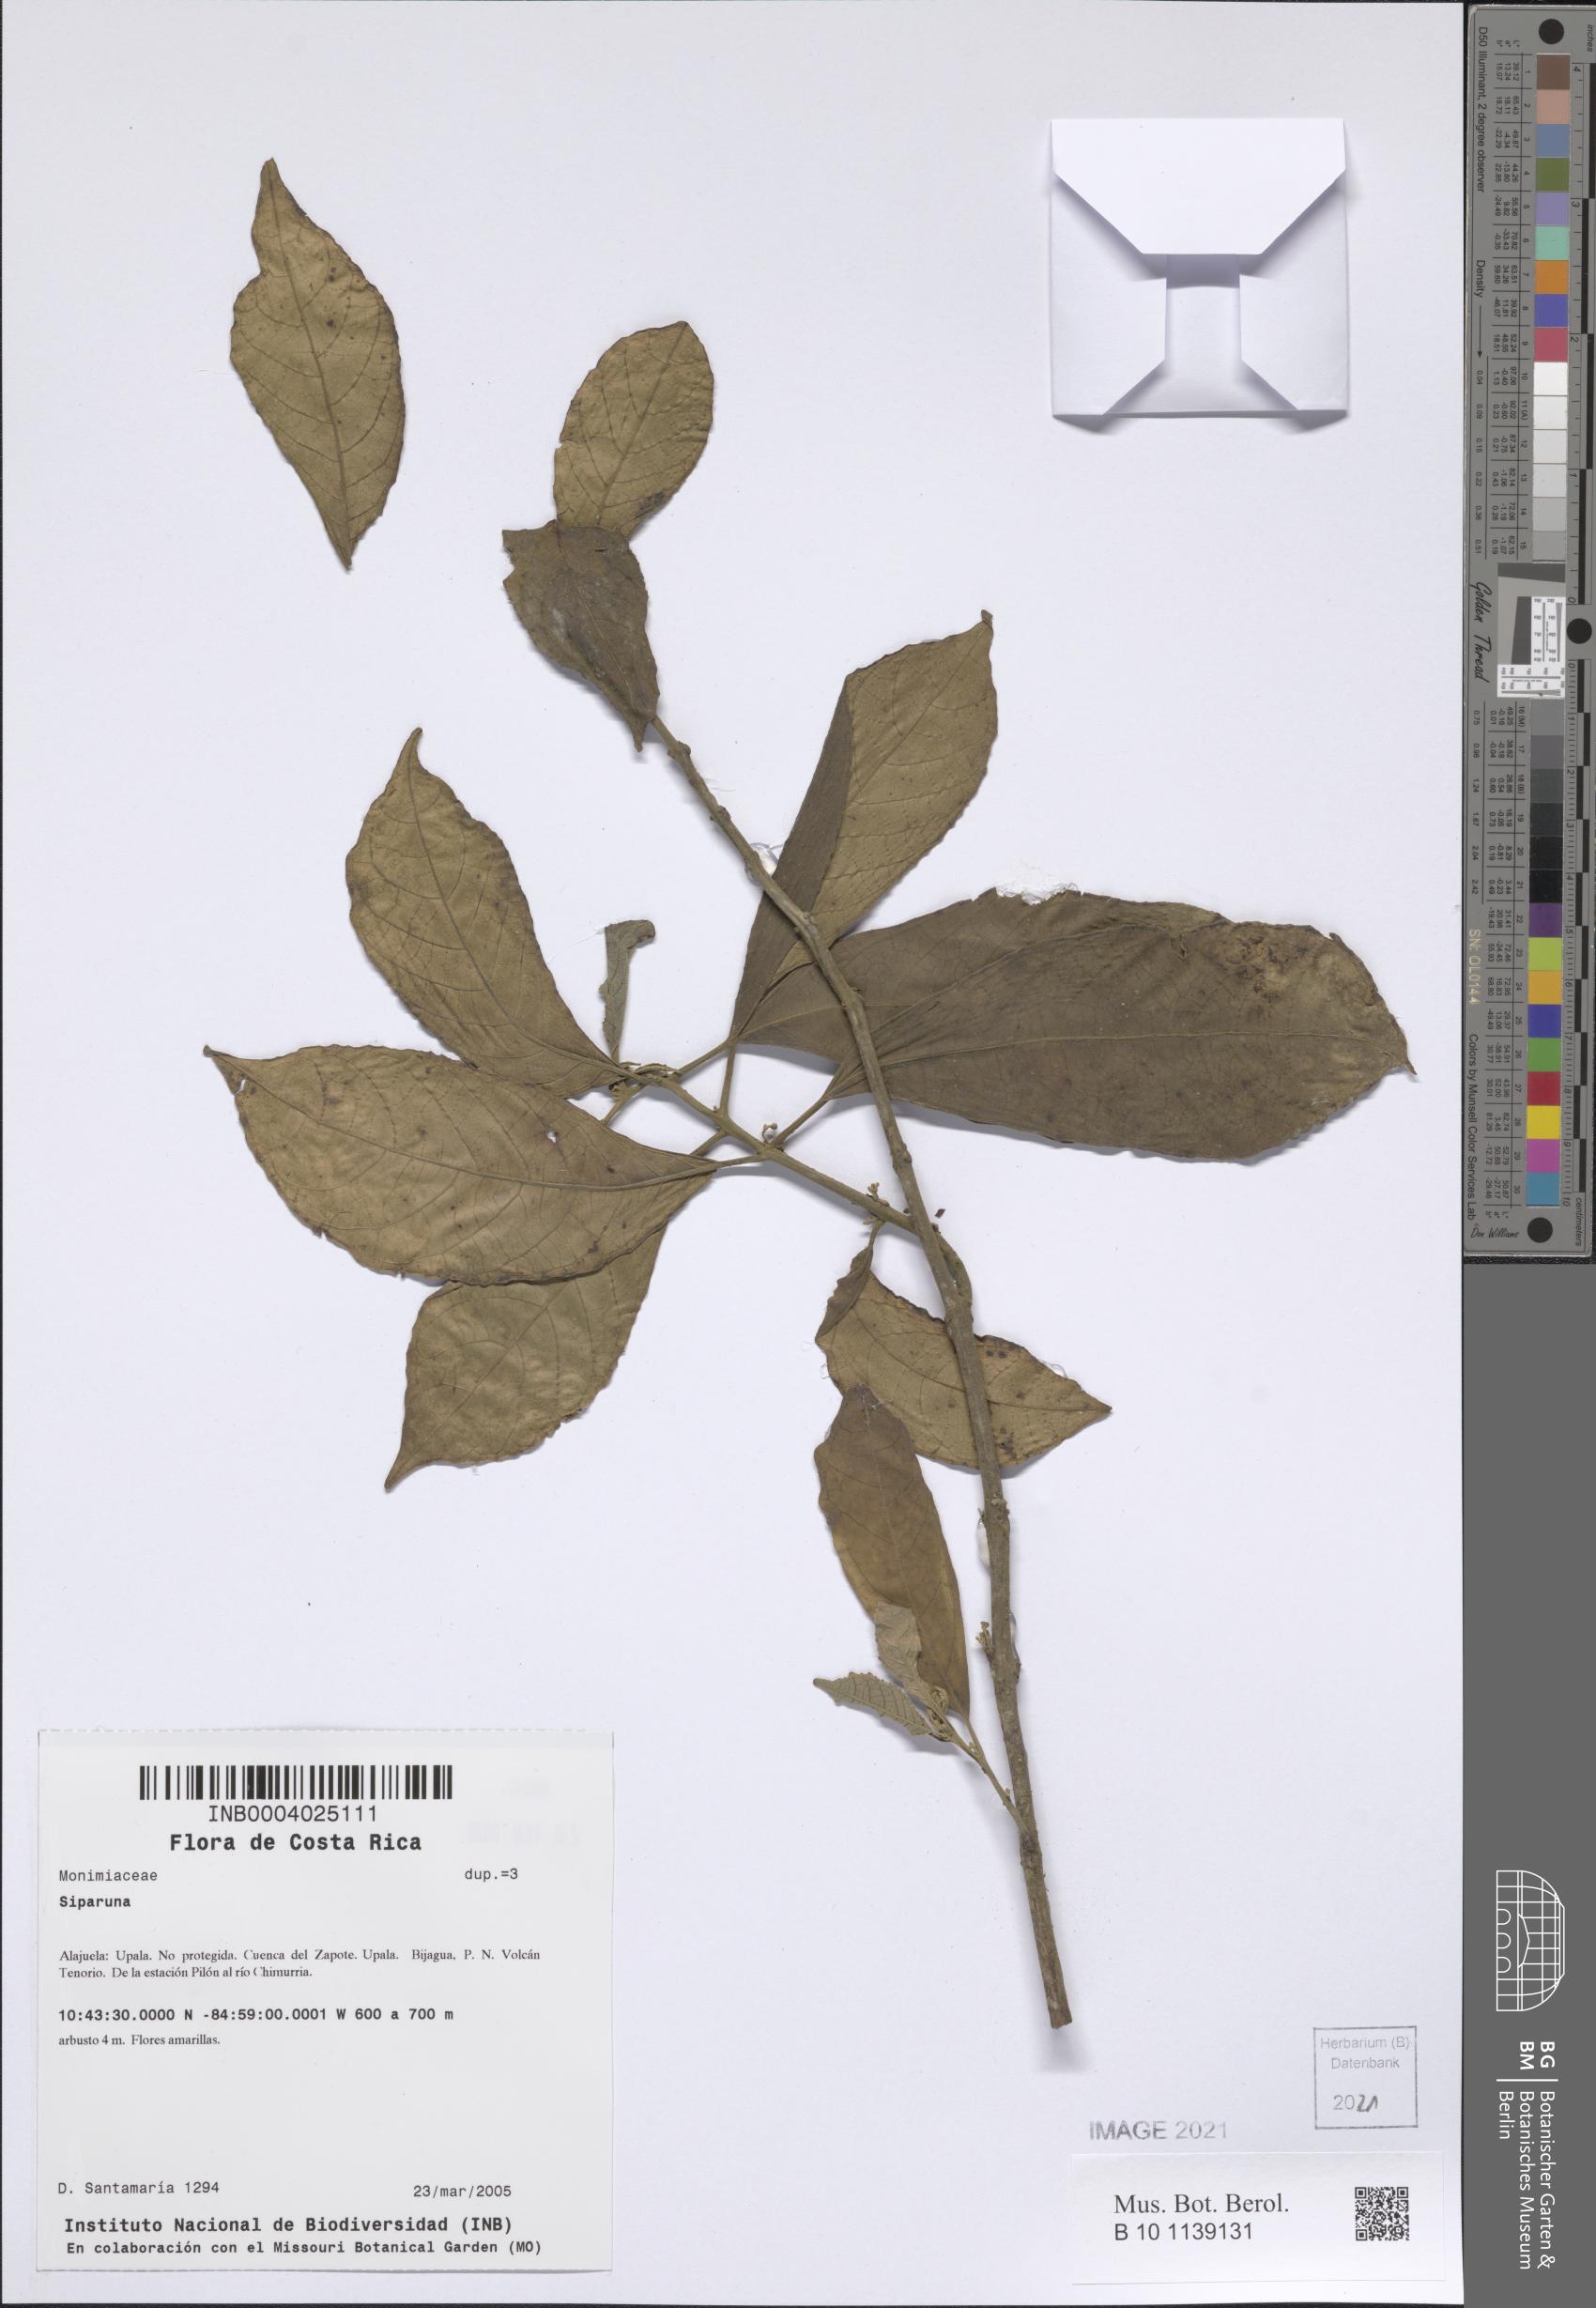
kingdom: Plantae
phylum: Tracheophyta
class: Magnoliopsida
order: Laurales
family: Siparunaceae
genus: Siparuna
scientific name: Siparuna
